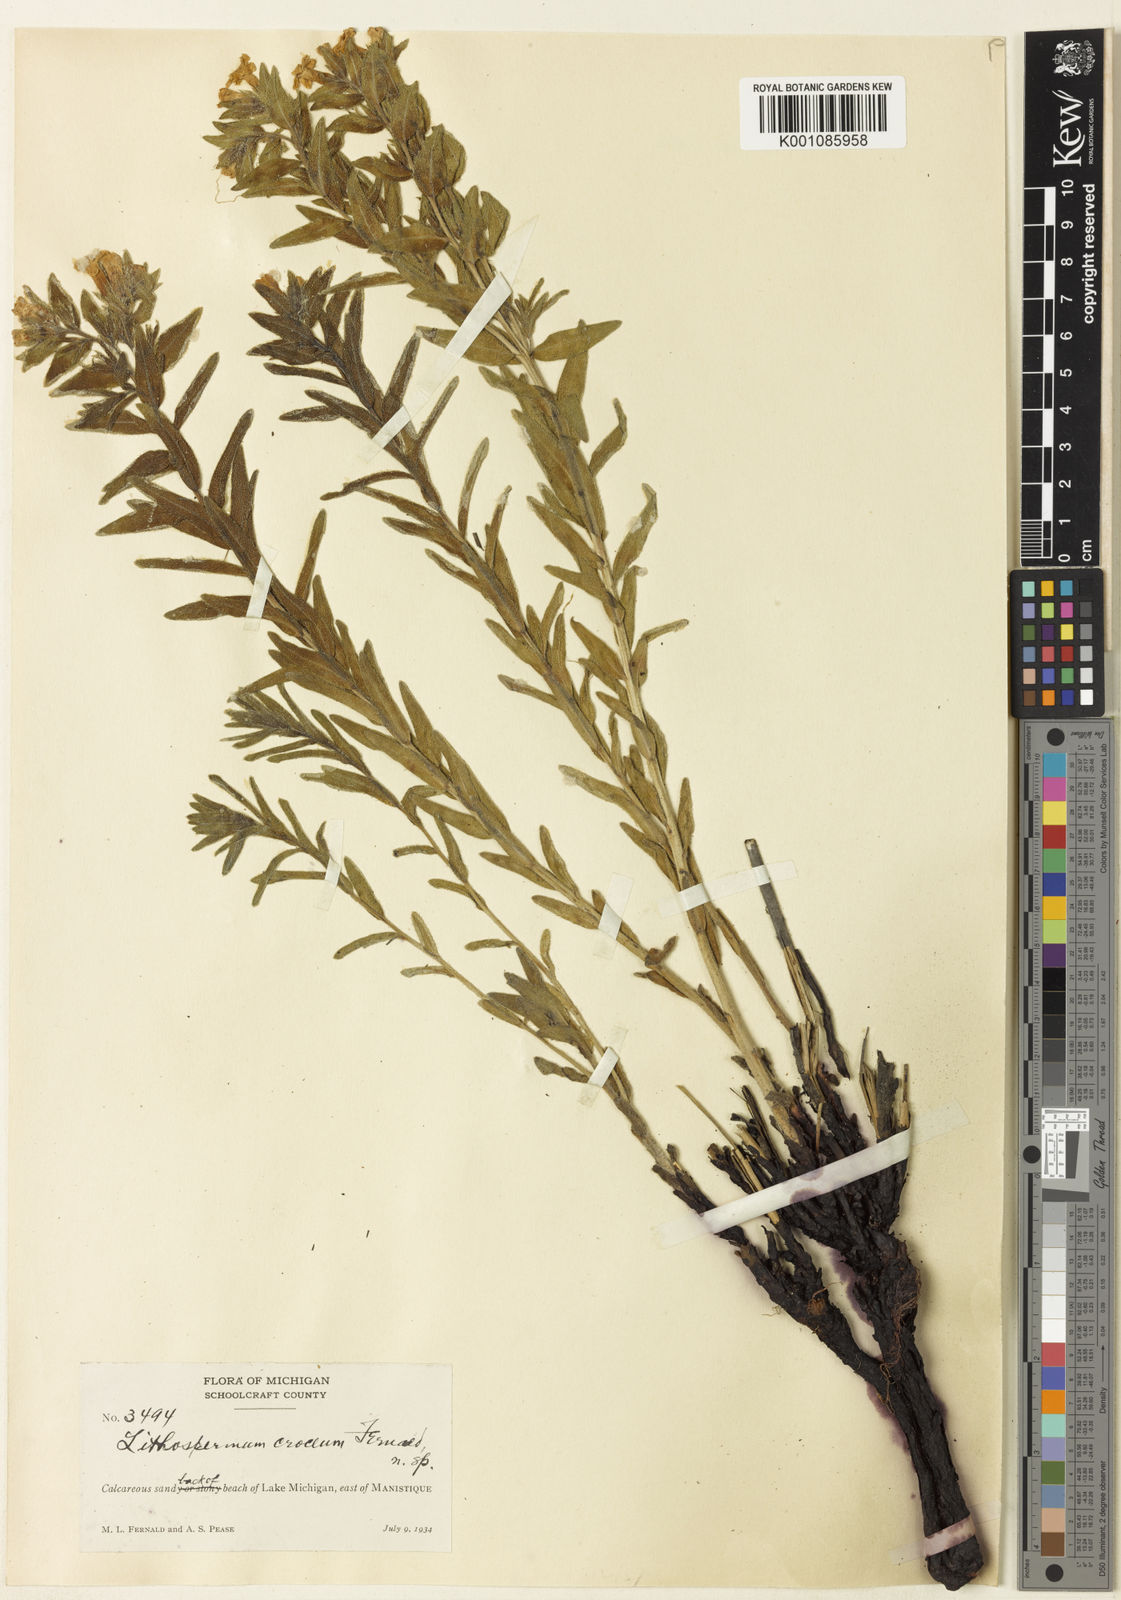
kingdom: Plantae
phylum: Tracheophyta
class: Magnoliopsida
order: Boraginales
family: Boraginaceae
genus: Lithospermum
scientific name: Lithospermum caroliniense
